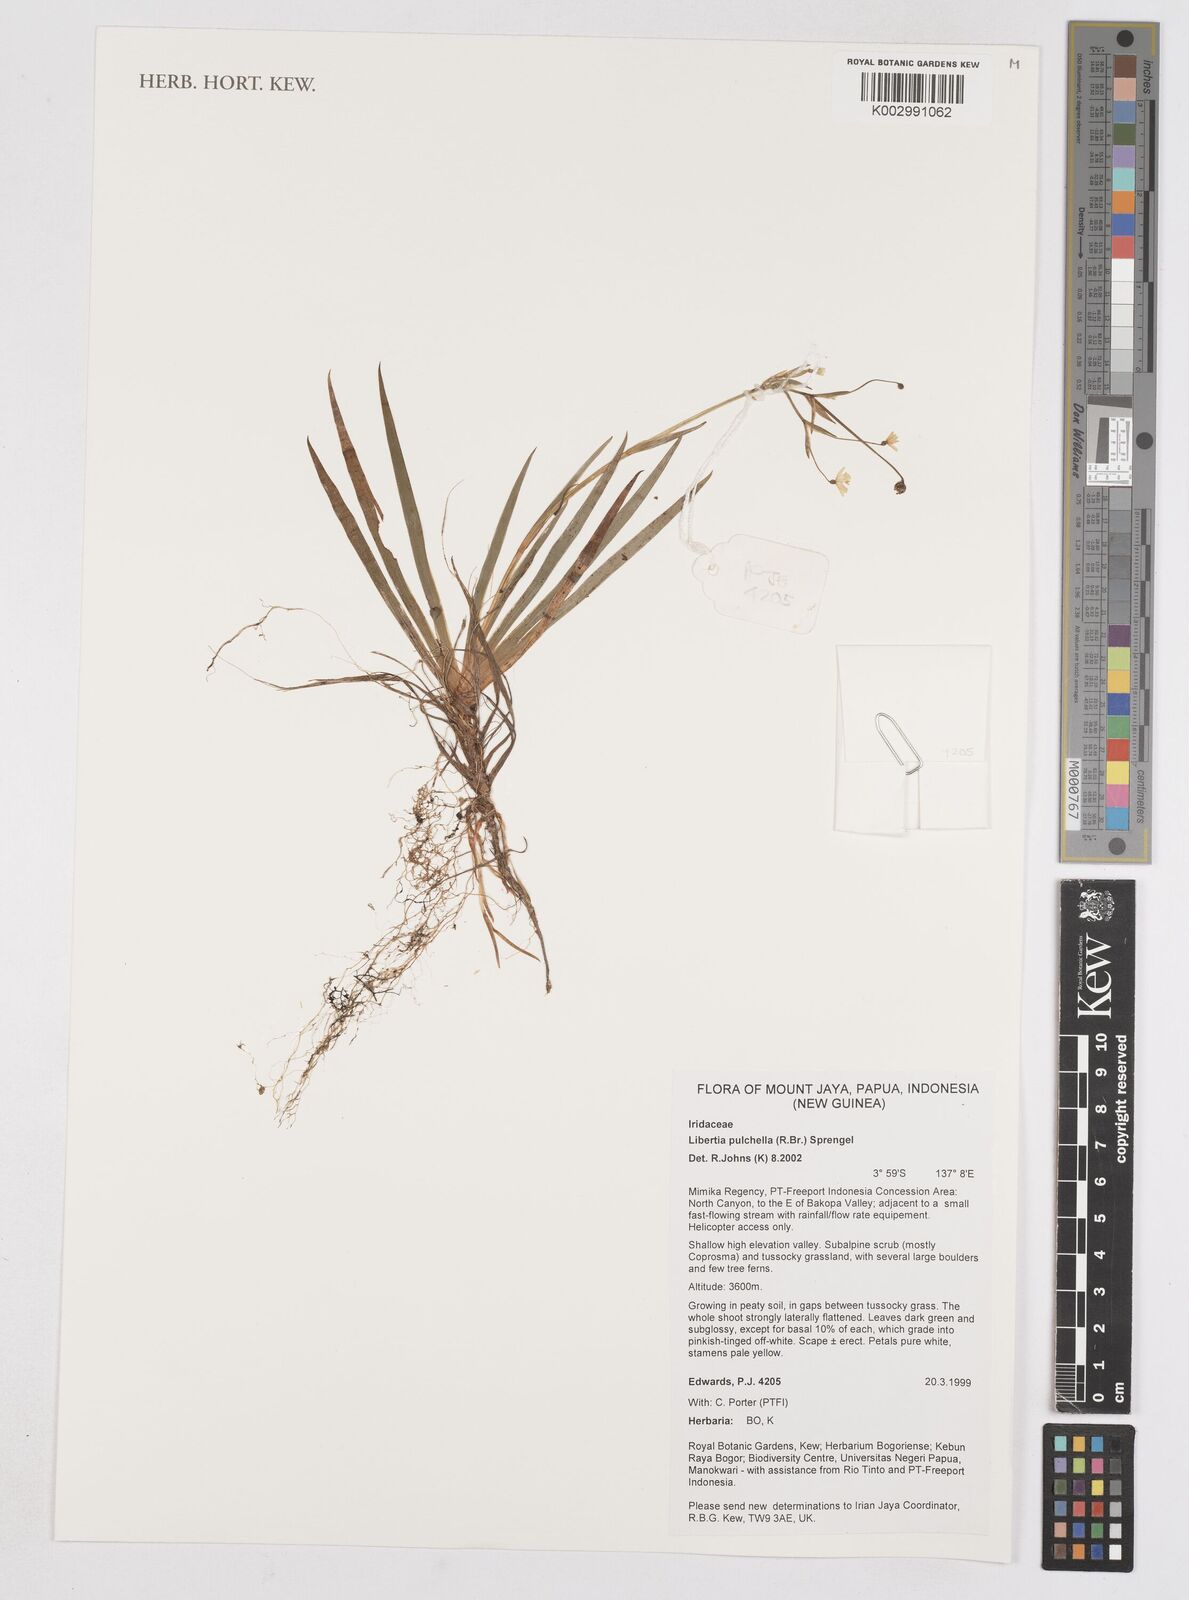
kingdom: Plantae
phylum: Tracheophyta
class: Liliopsida
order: Asparagales
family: Iridaceae
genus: Libertia
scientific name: Libertia pulchella
